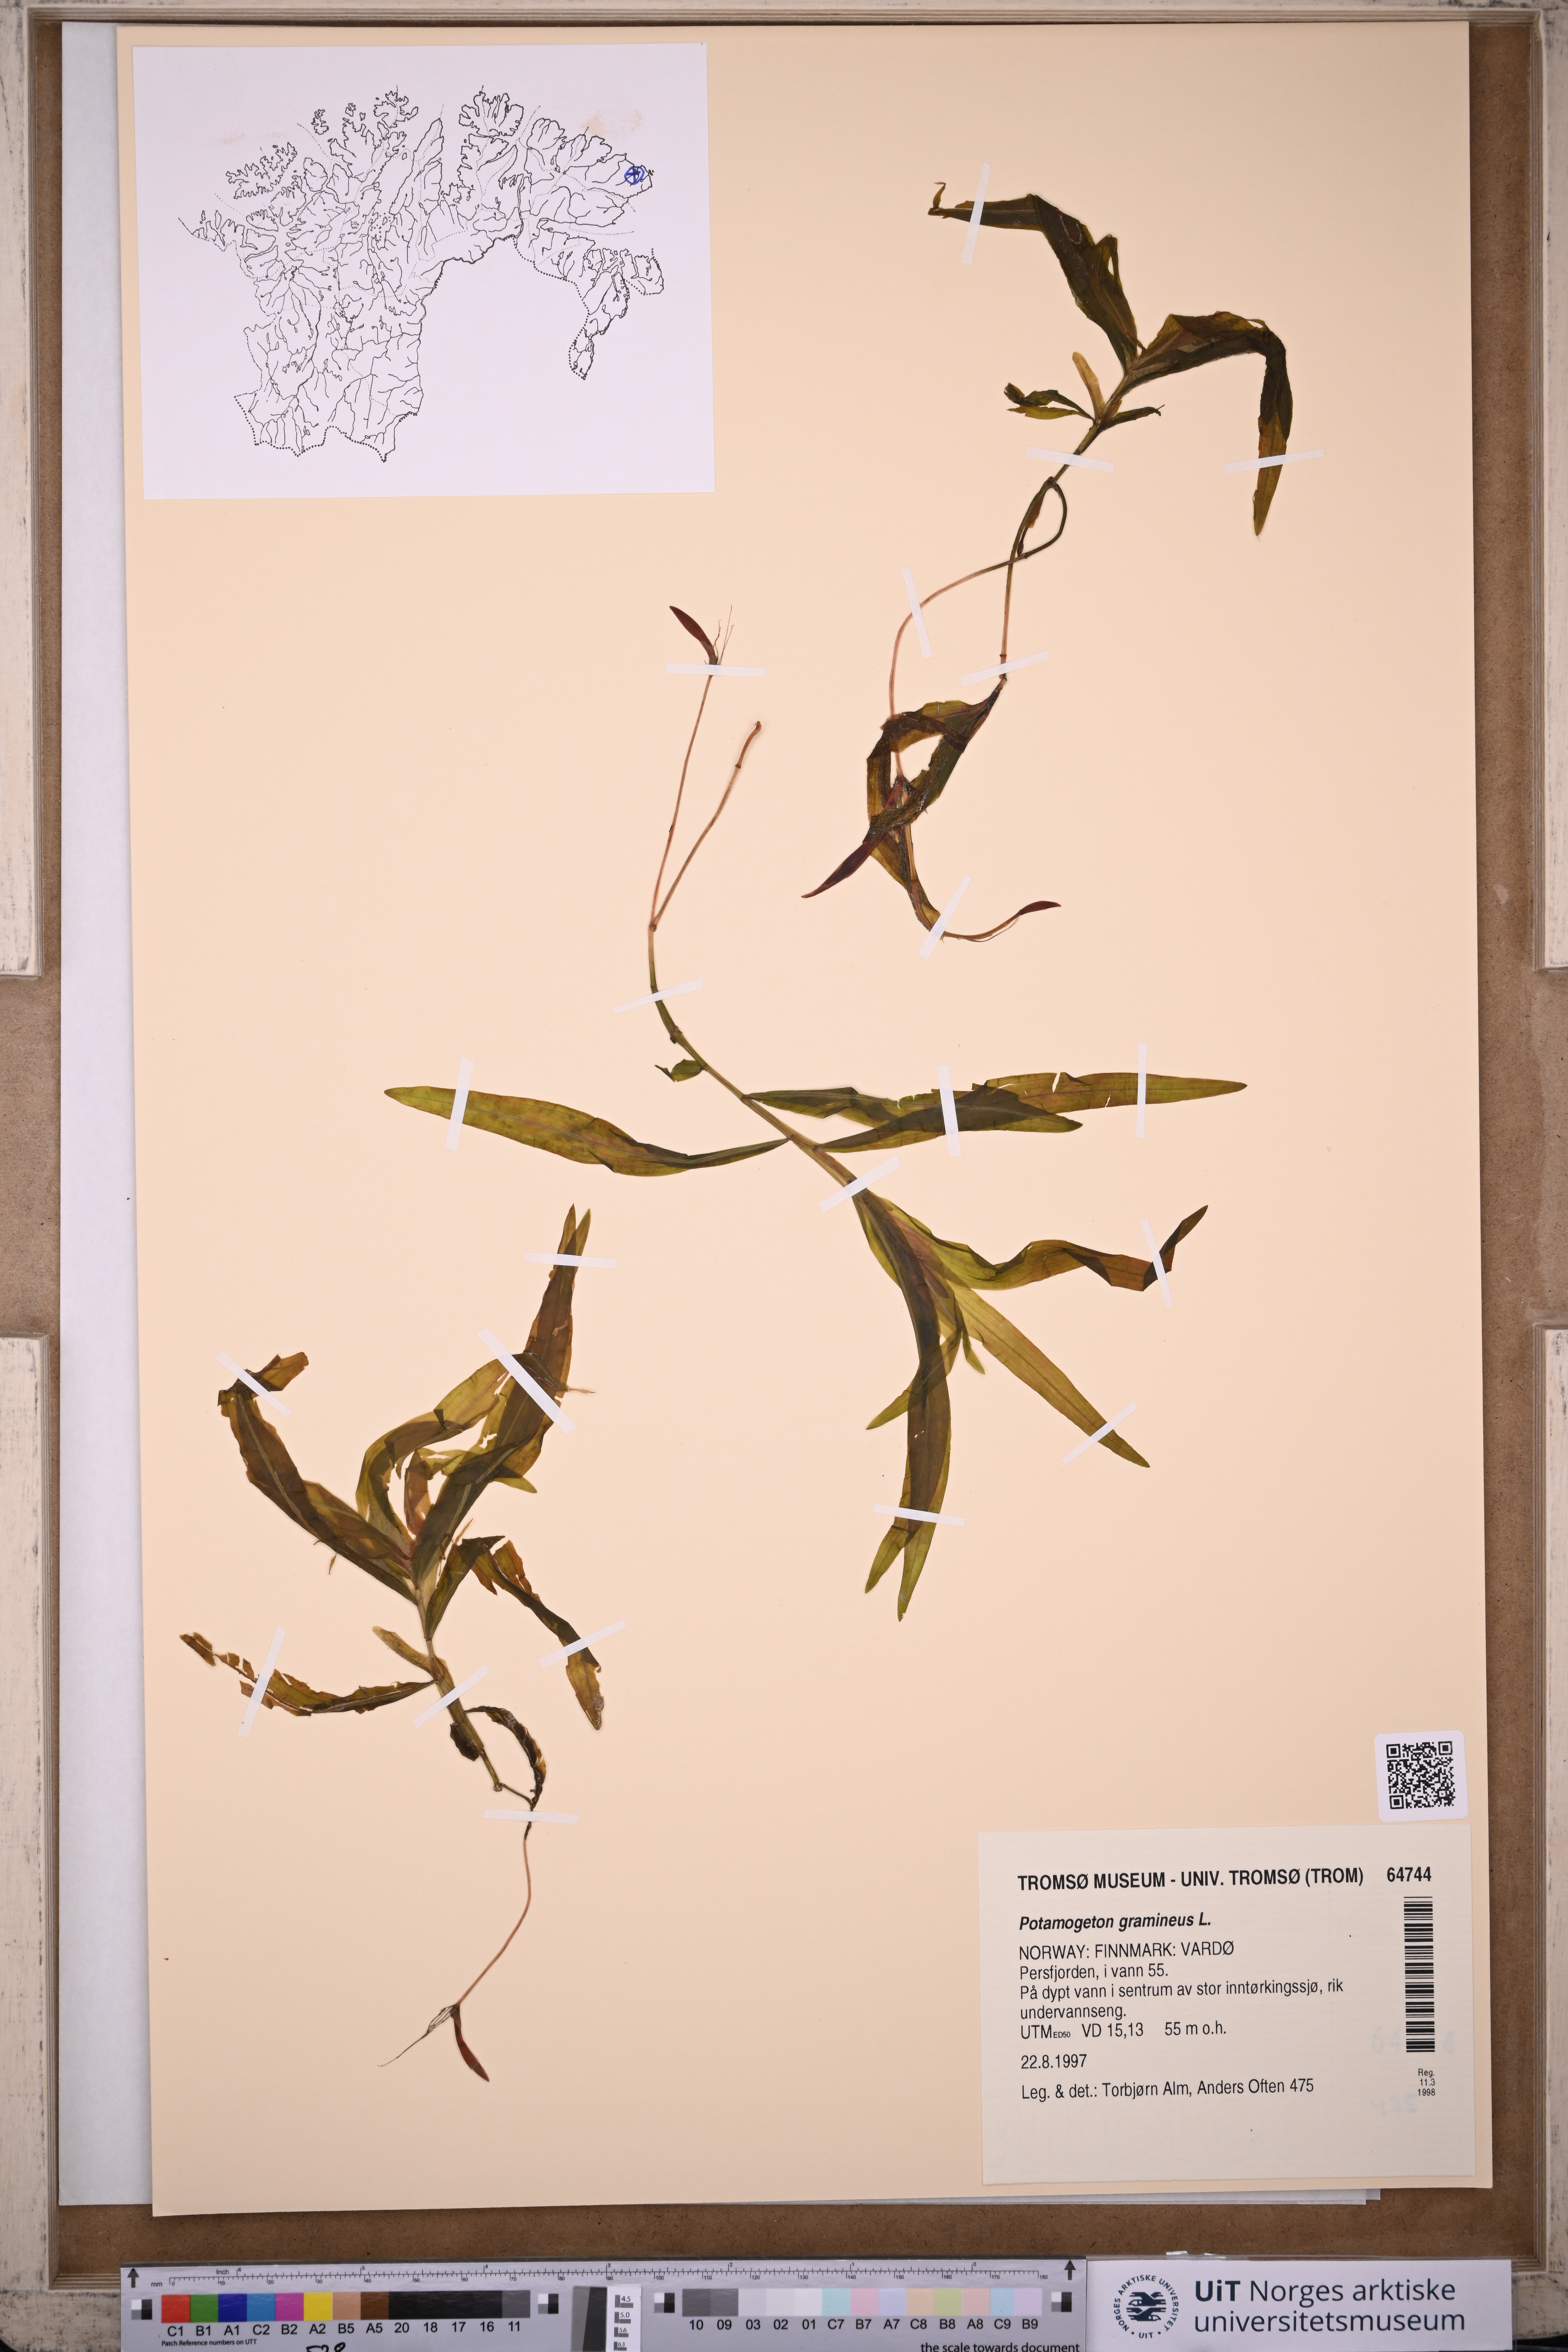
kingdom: Plantae
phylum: Tracheophyta
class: Liliopsida
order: Alismatales
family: Potamogetonaceae
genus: Potamogeton
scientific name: Potamogeton gramineus
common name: Various-leaved pondweed
